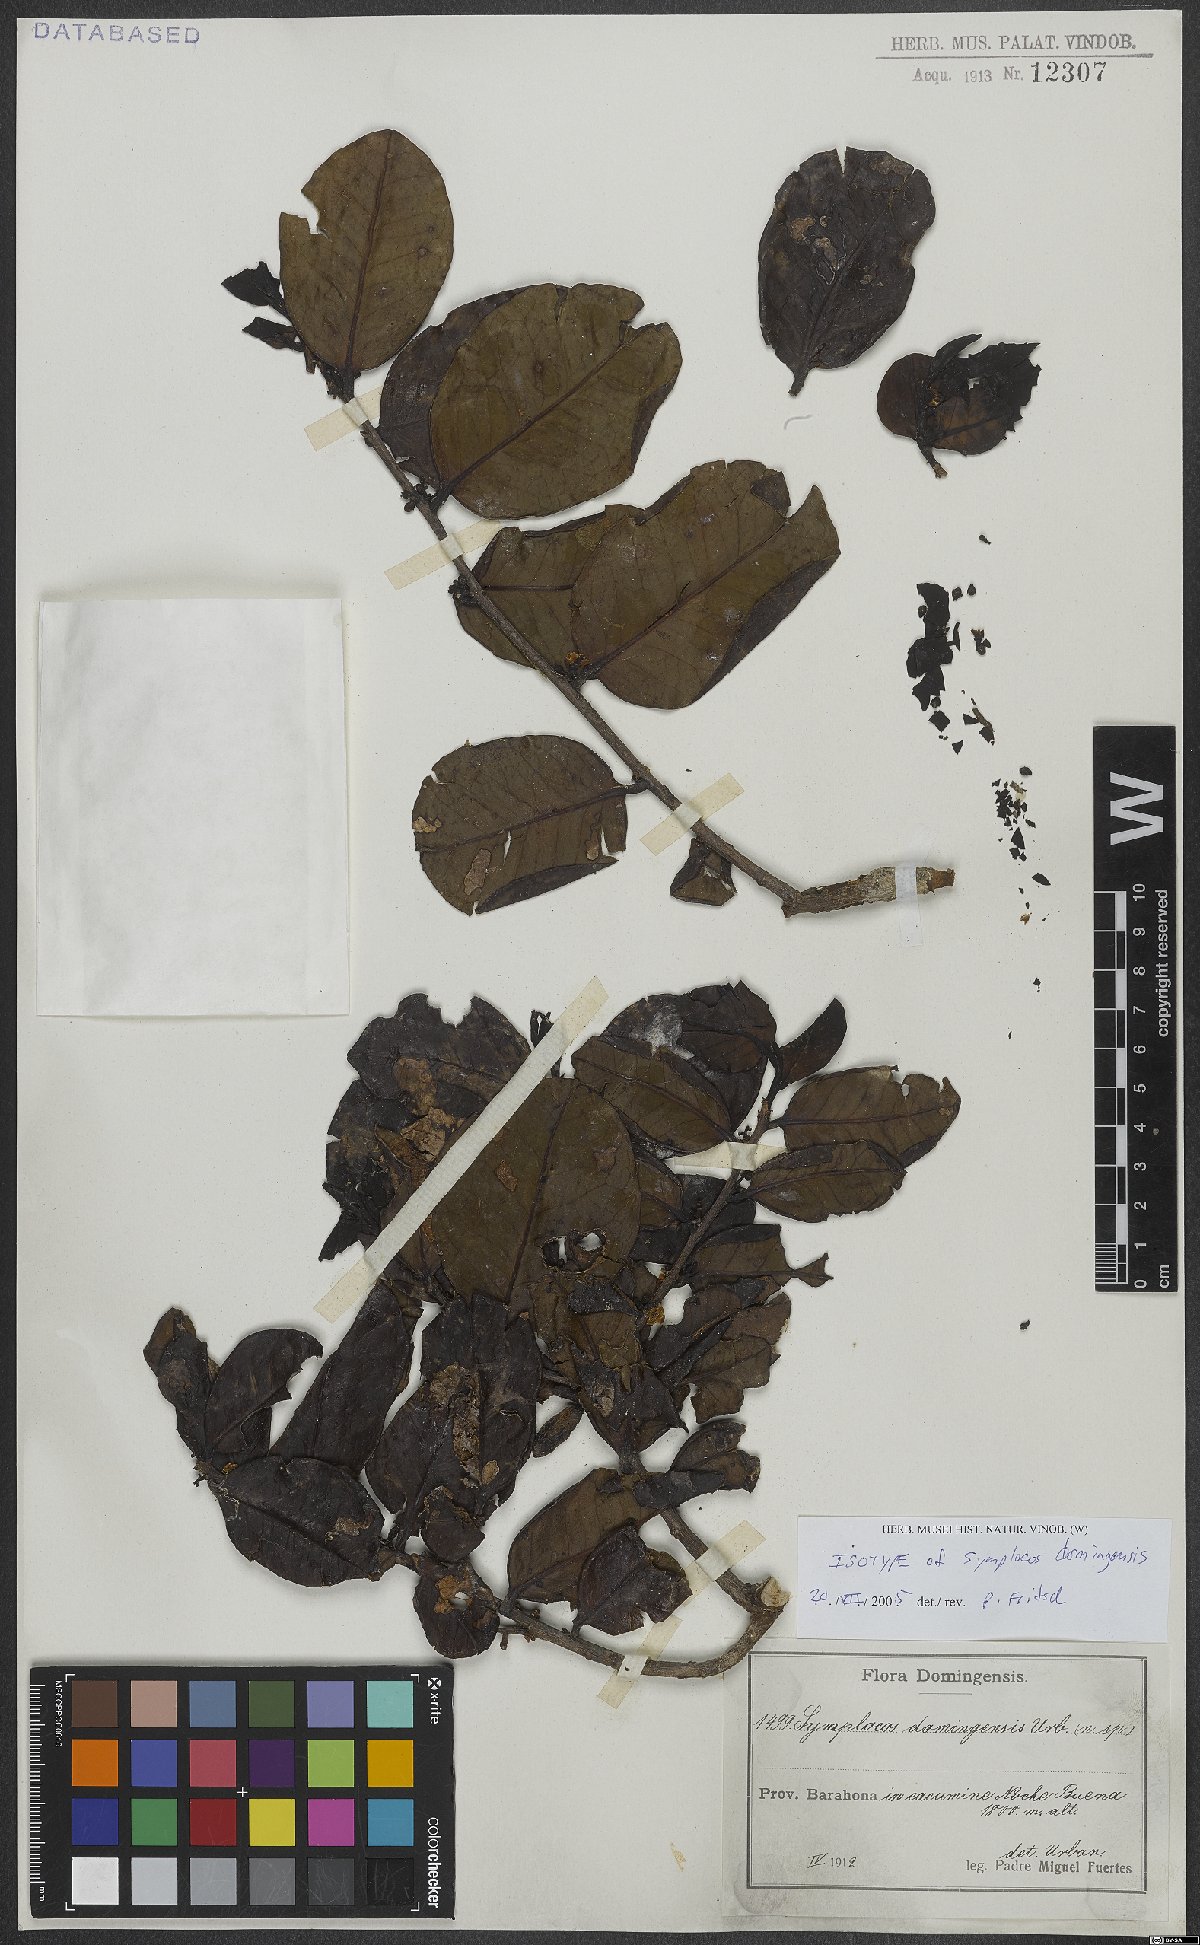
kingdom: Plantae
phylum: Tracheophyta
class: Magnoliopsida
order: Ericales
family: Symplocaceae
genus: Symplocos
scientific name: Symplocos domingensis
